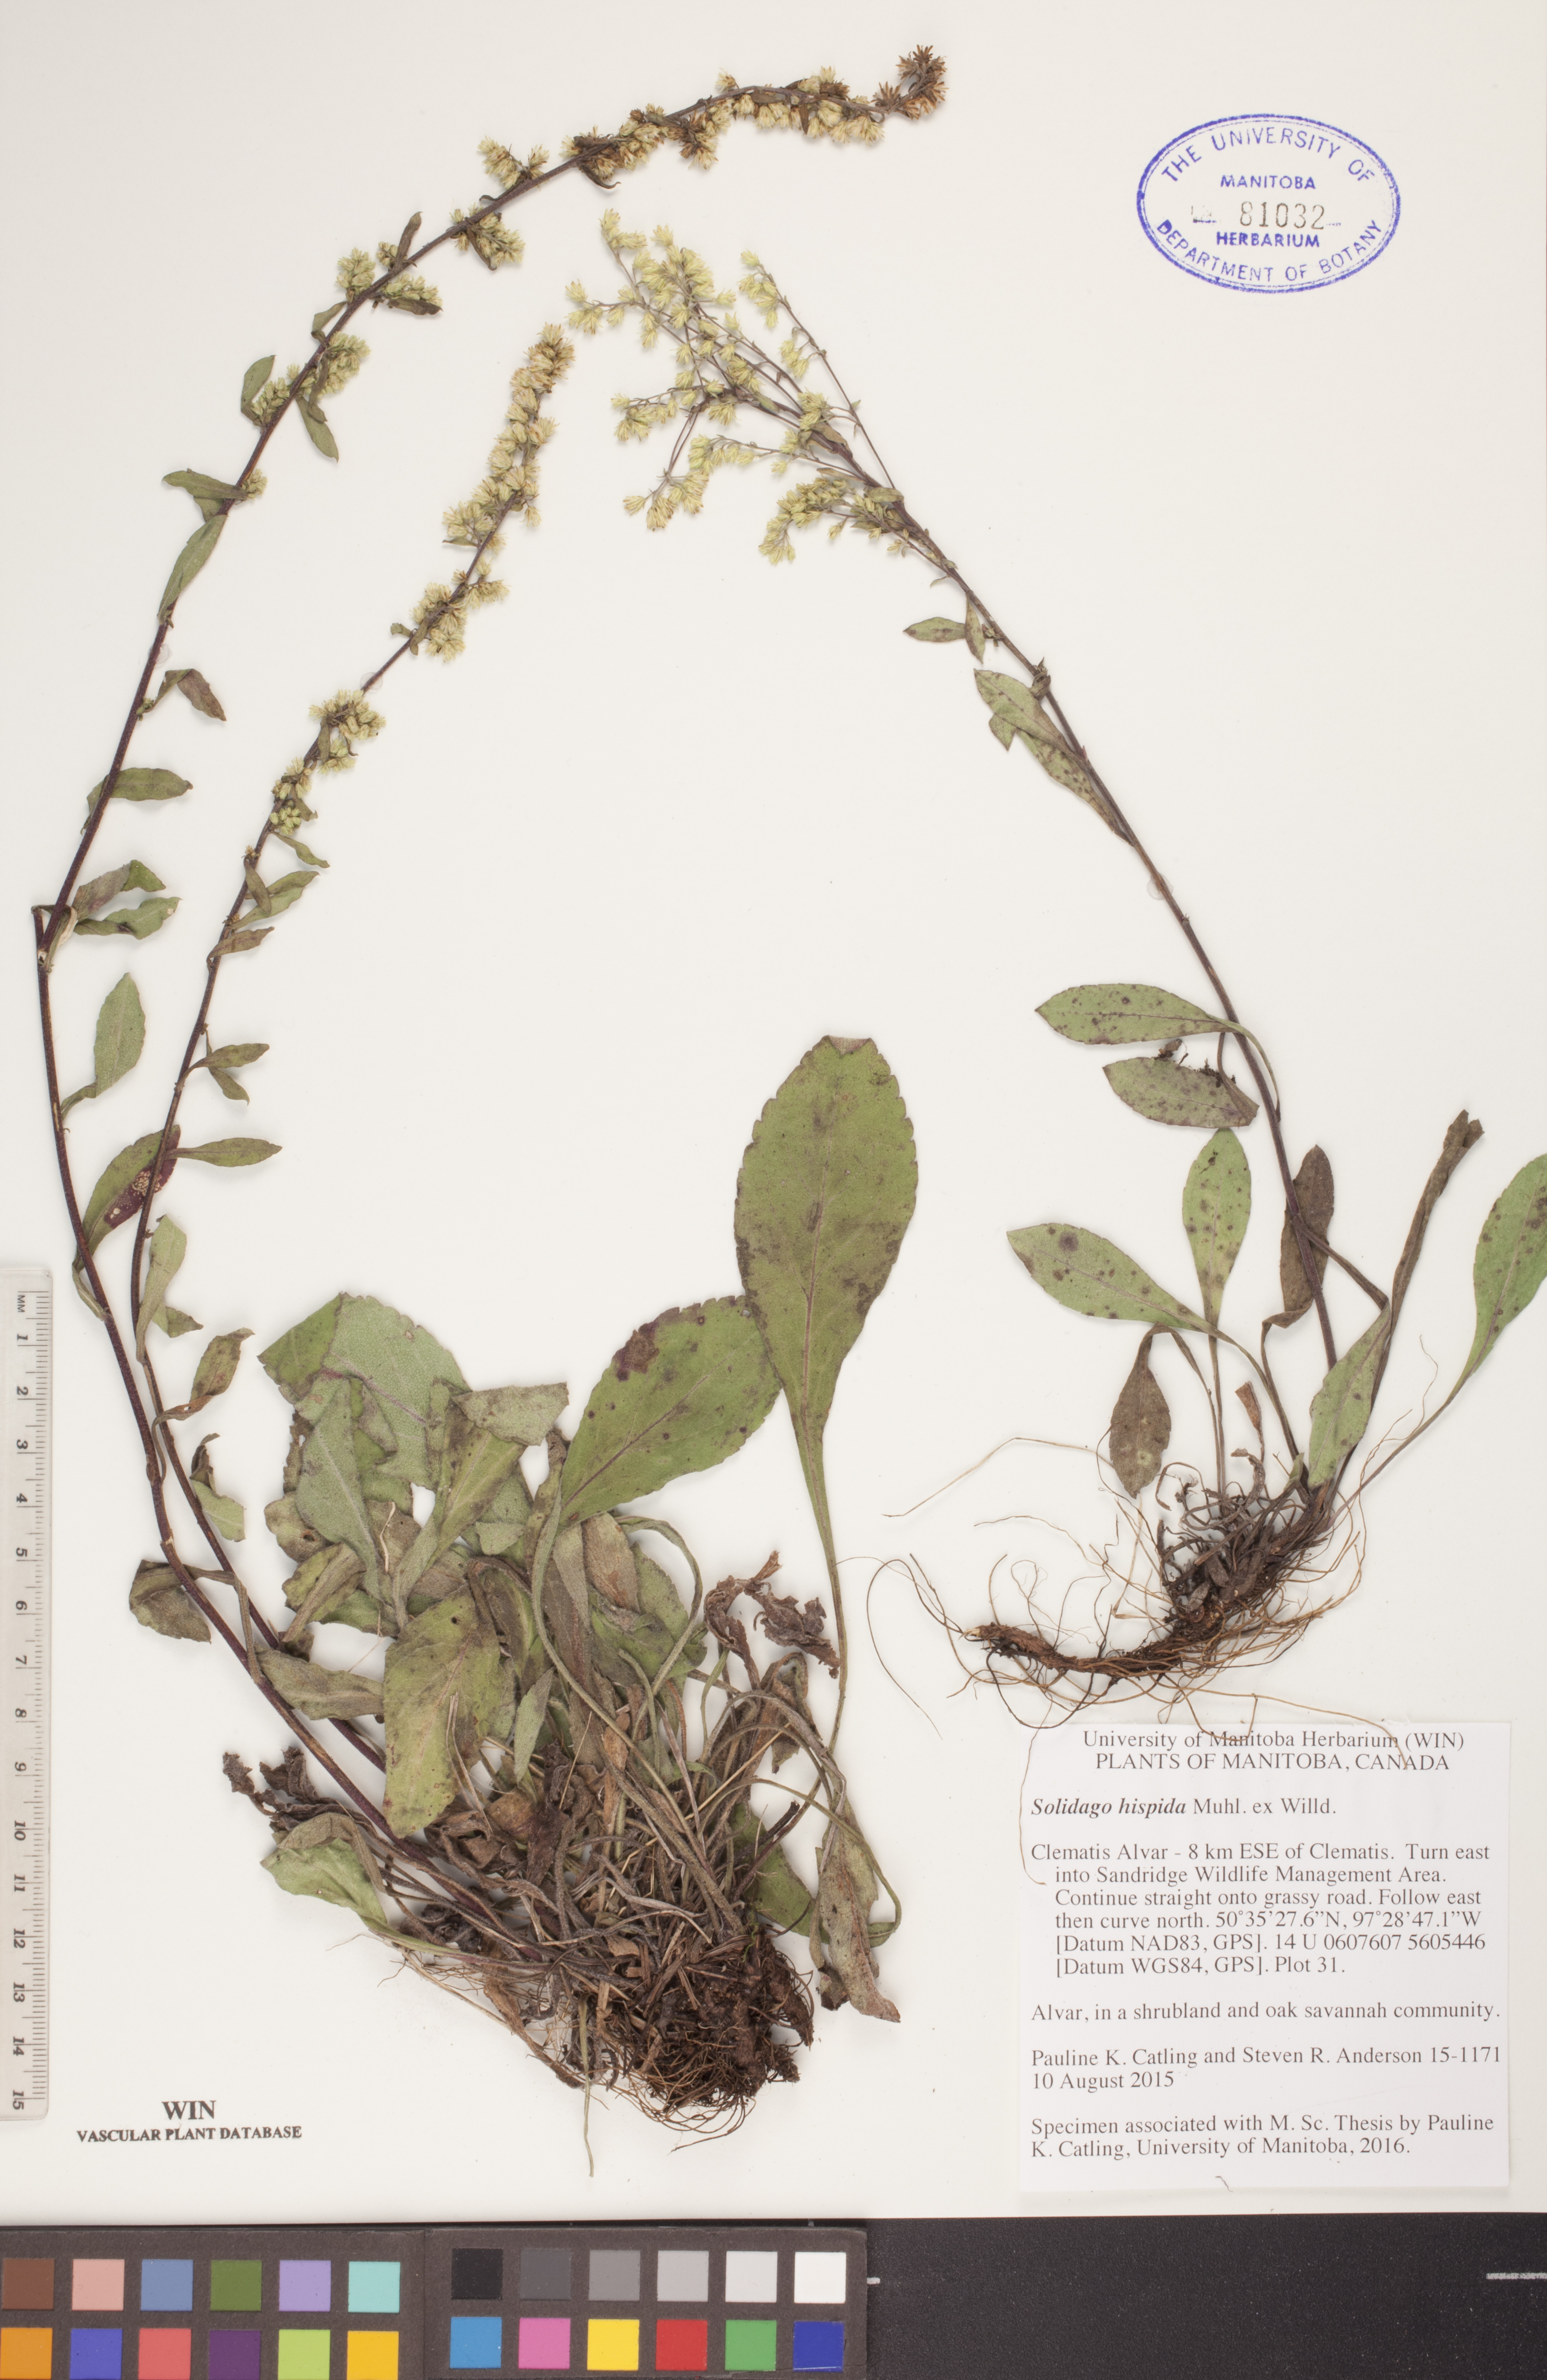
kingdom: Plantae
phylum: Tracheophyta
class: Magnoliopsida
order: Asterales
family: Asteraceae
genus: Solidago
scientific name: Solidago hispida
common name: Hairy goldenrod
